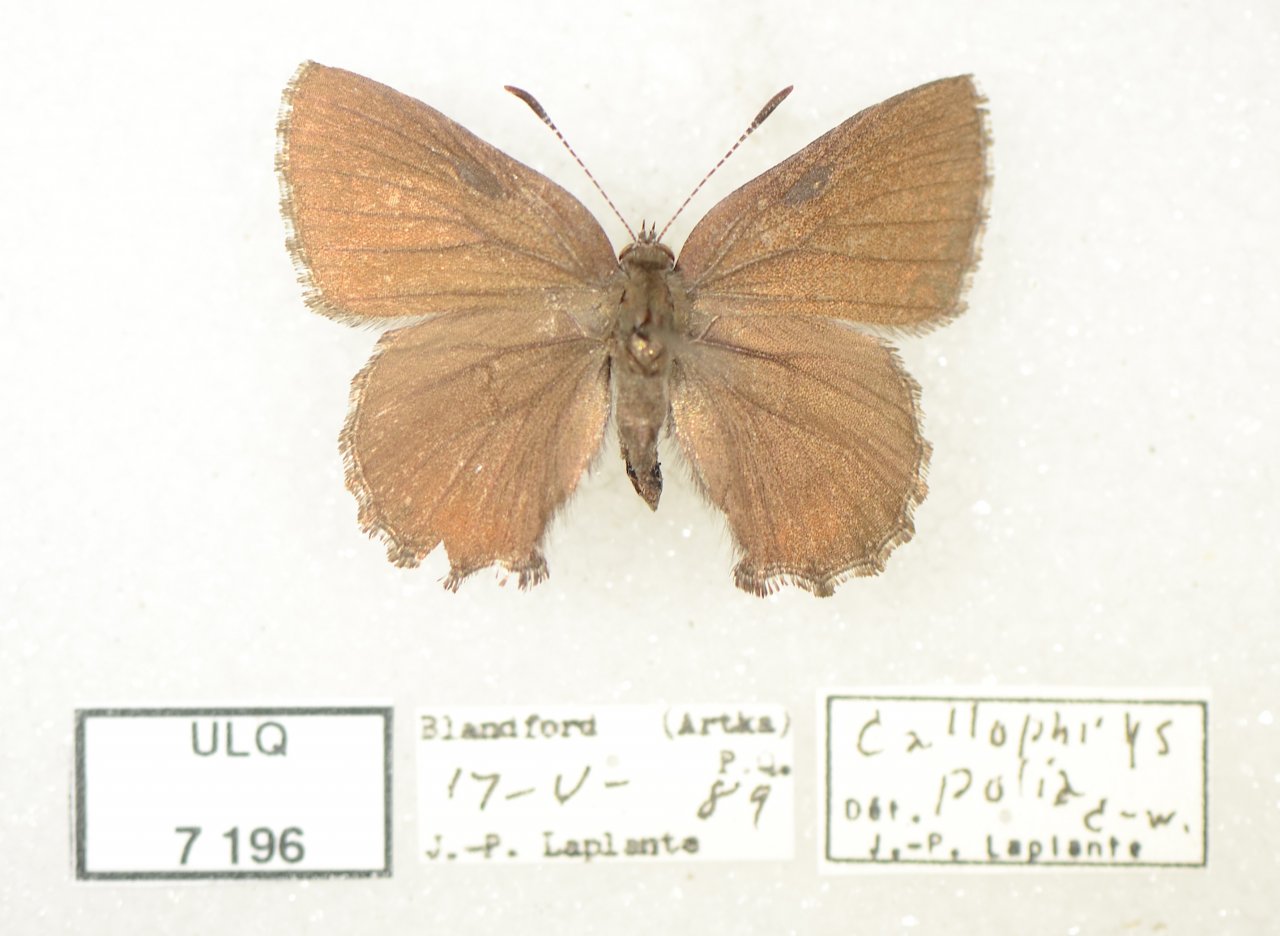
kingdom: Animalia
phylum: Arthropoda
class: Insecta
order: Lepidoptera
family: Lycaenidae
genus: Callophrys
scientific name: Callophrys polios
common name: Hoary Elfin
